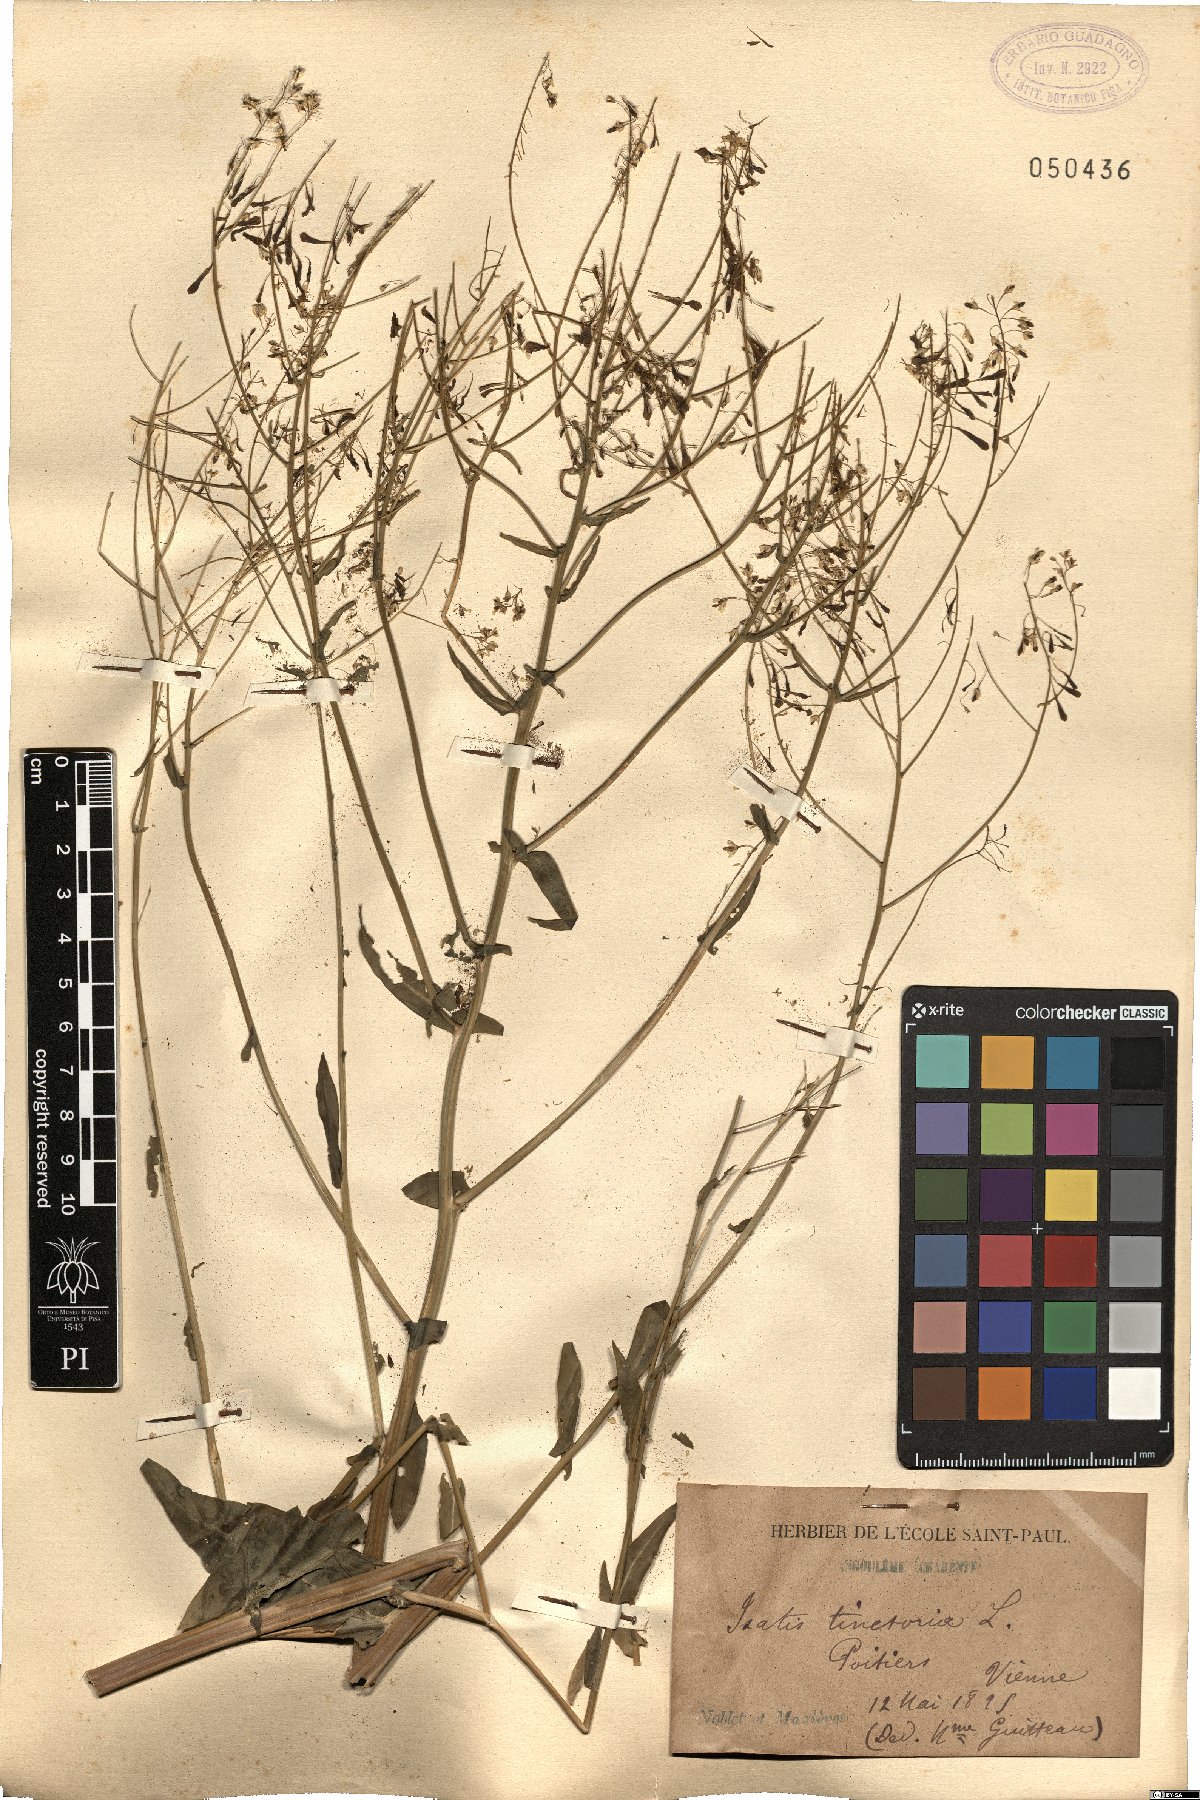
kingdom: Plantae
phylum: Tracheophyta
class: Magnoliopsida
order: Brassicales
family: Brassicaceae
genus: Isatis
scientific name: Isatis tinctoria
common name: Woad
